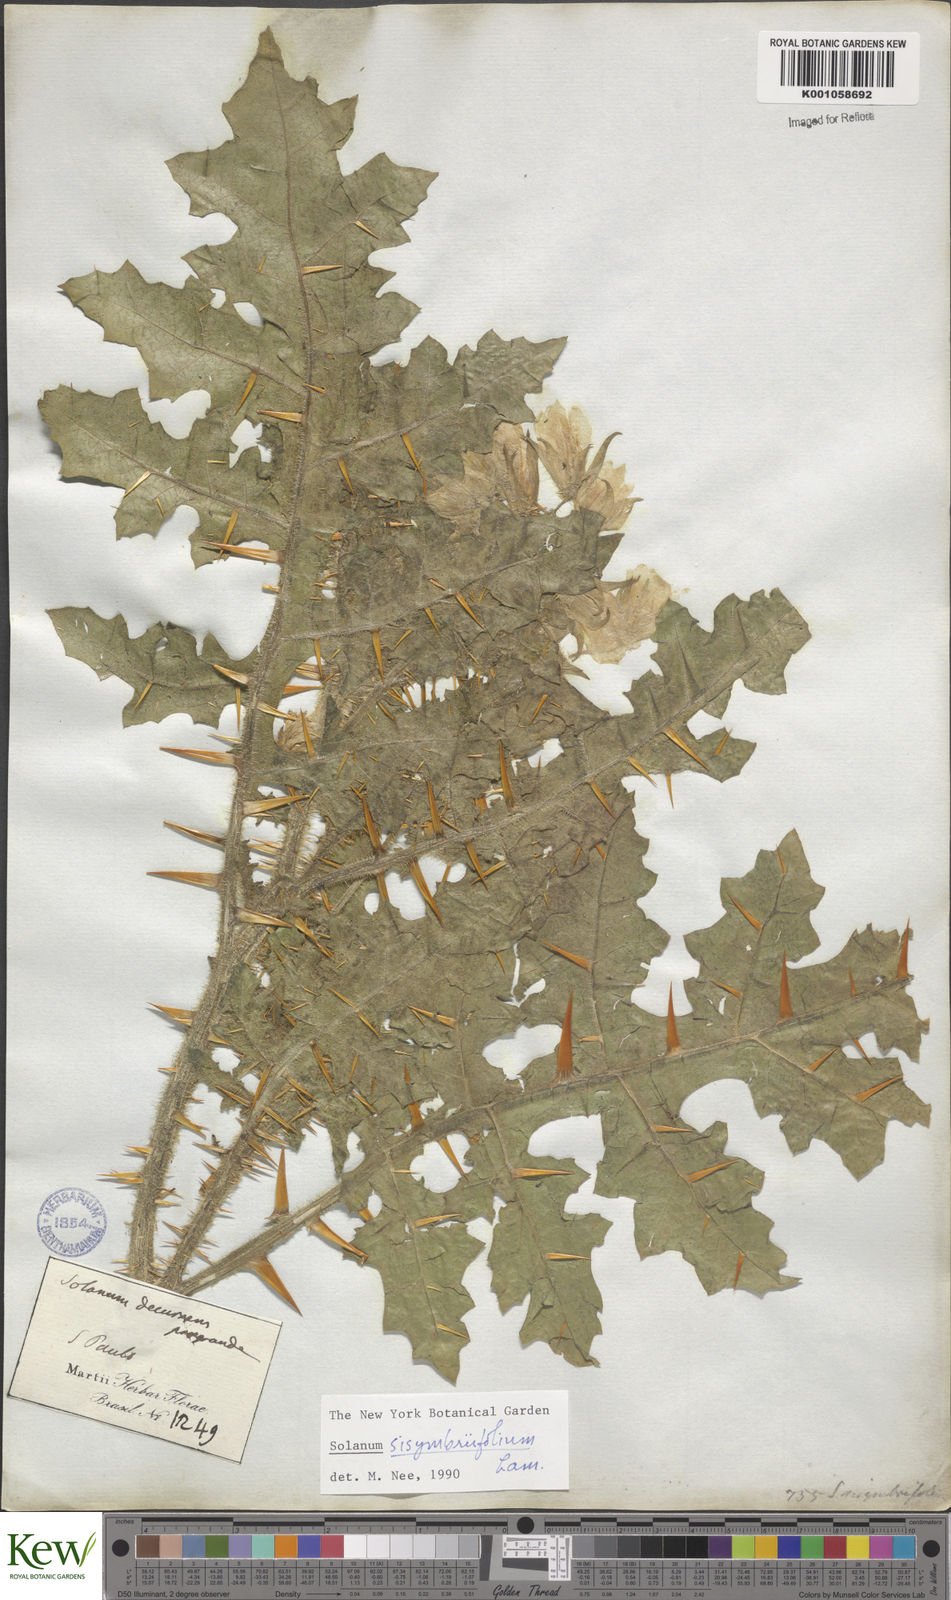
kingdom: Plantae
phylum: Tracheophyta
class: Magnoliopsida
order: Solanales
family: Solanaceae
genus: Solanum
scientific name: Solanum sisymbriifolium
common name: Red buffalo-bur
